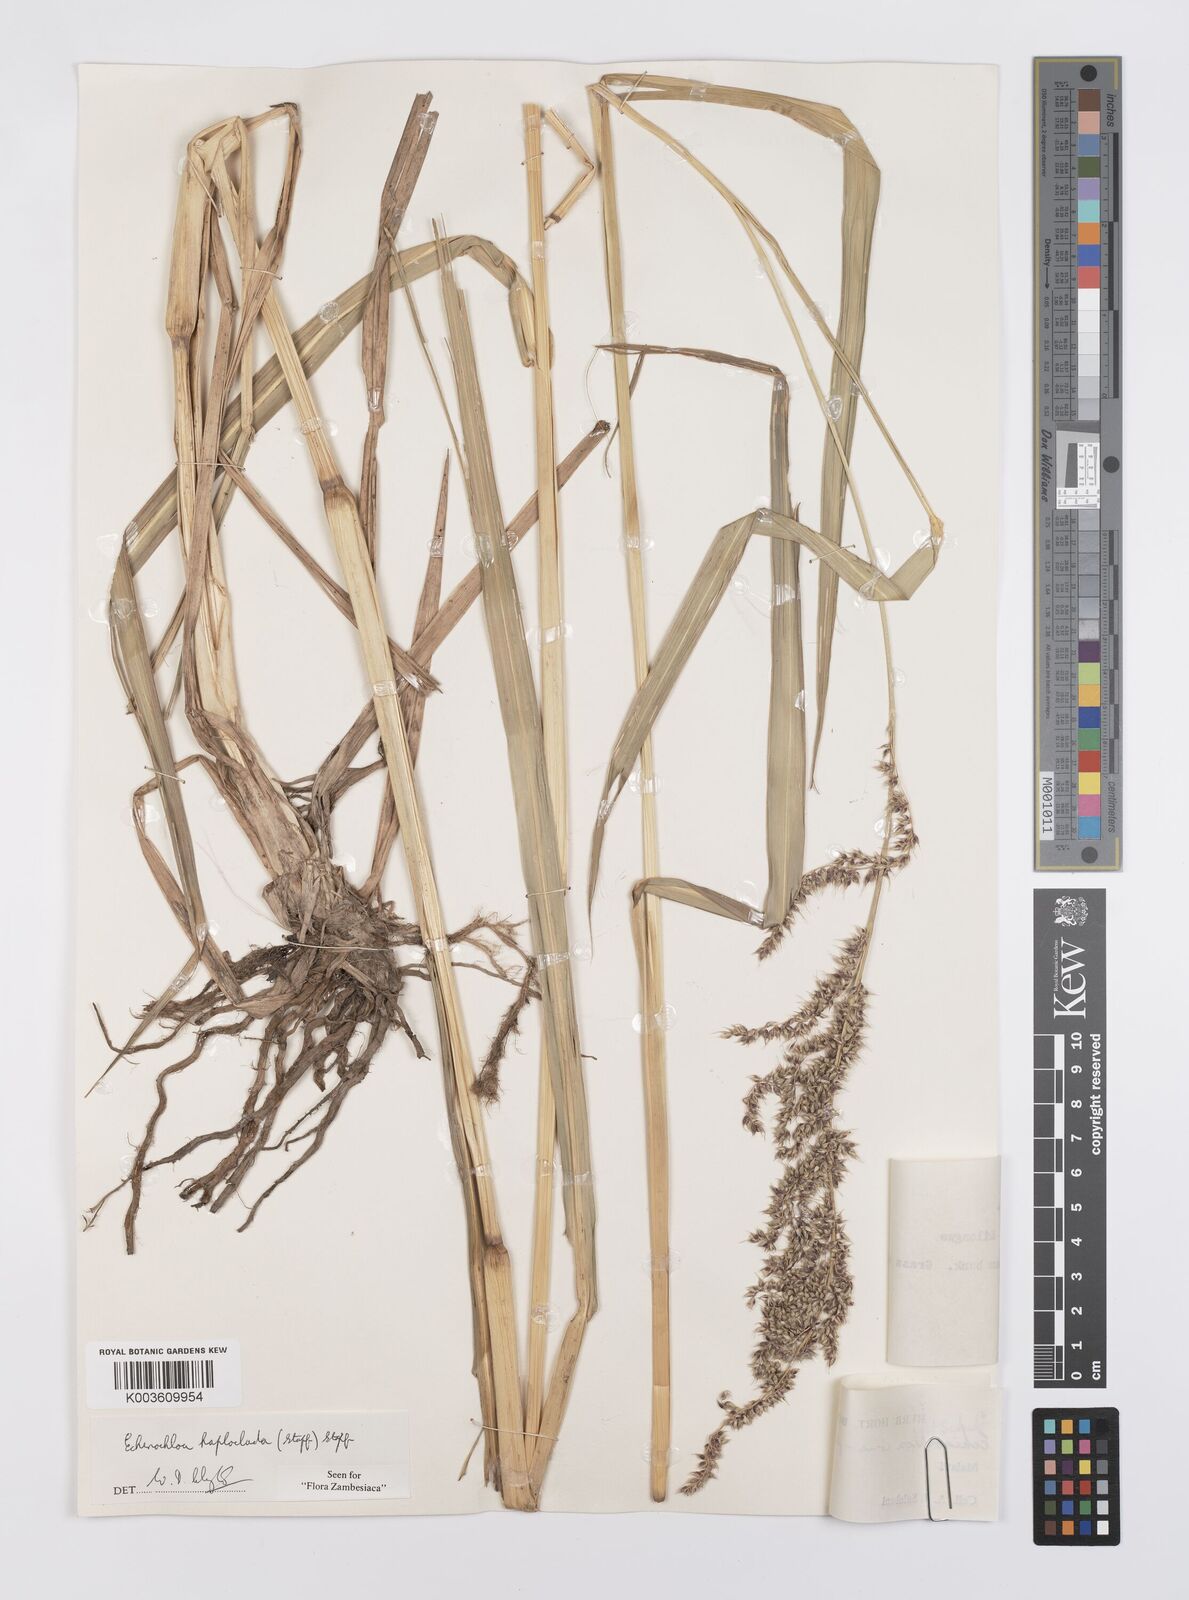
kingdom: Plantae
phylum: Tracheophyta
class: Liliopsida
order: Poales
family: Poaceae
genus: Echinochloa
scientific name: Echinochloa haploclada
